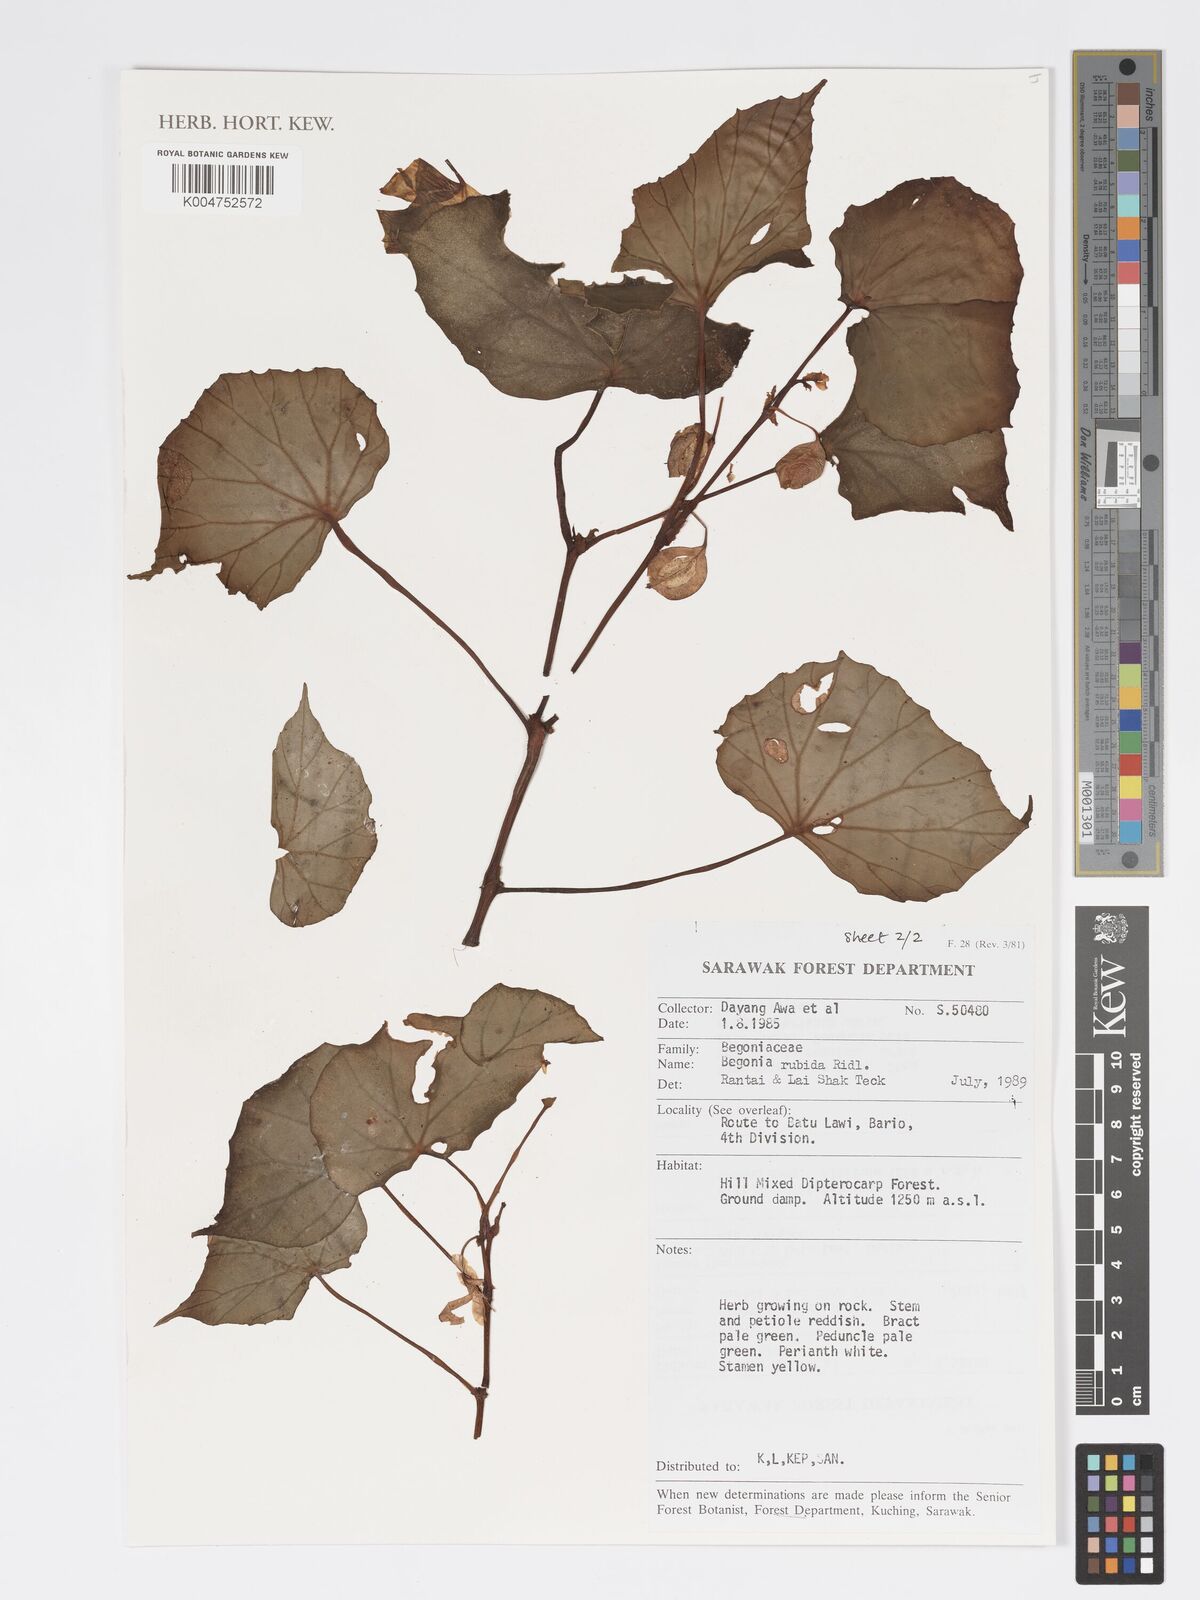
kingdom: Plantae
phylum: Tracheophyta
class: Magnoliopsida
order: Cucurbitales
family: Begoniaceae
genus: Begonia
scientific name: Begonia rubida
